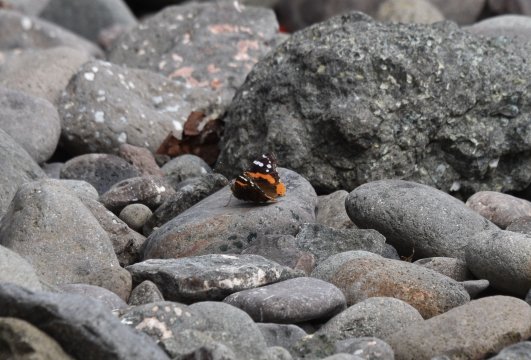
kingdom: Animalia
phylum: Arthropoda
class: Insecta
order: Lepidoptera
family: Nymphalidae
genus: Vanessa
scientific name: Vanessa atalanta
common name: Red Admiral
